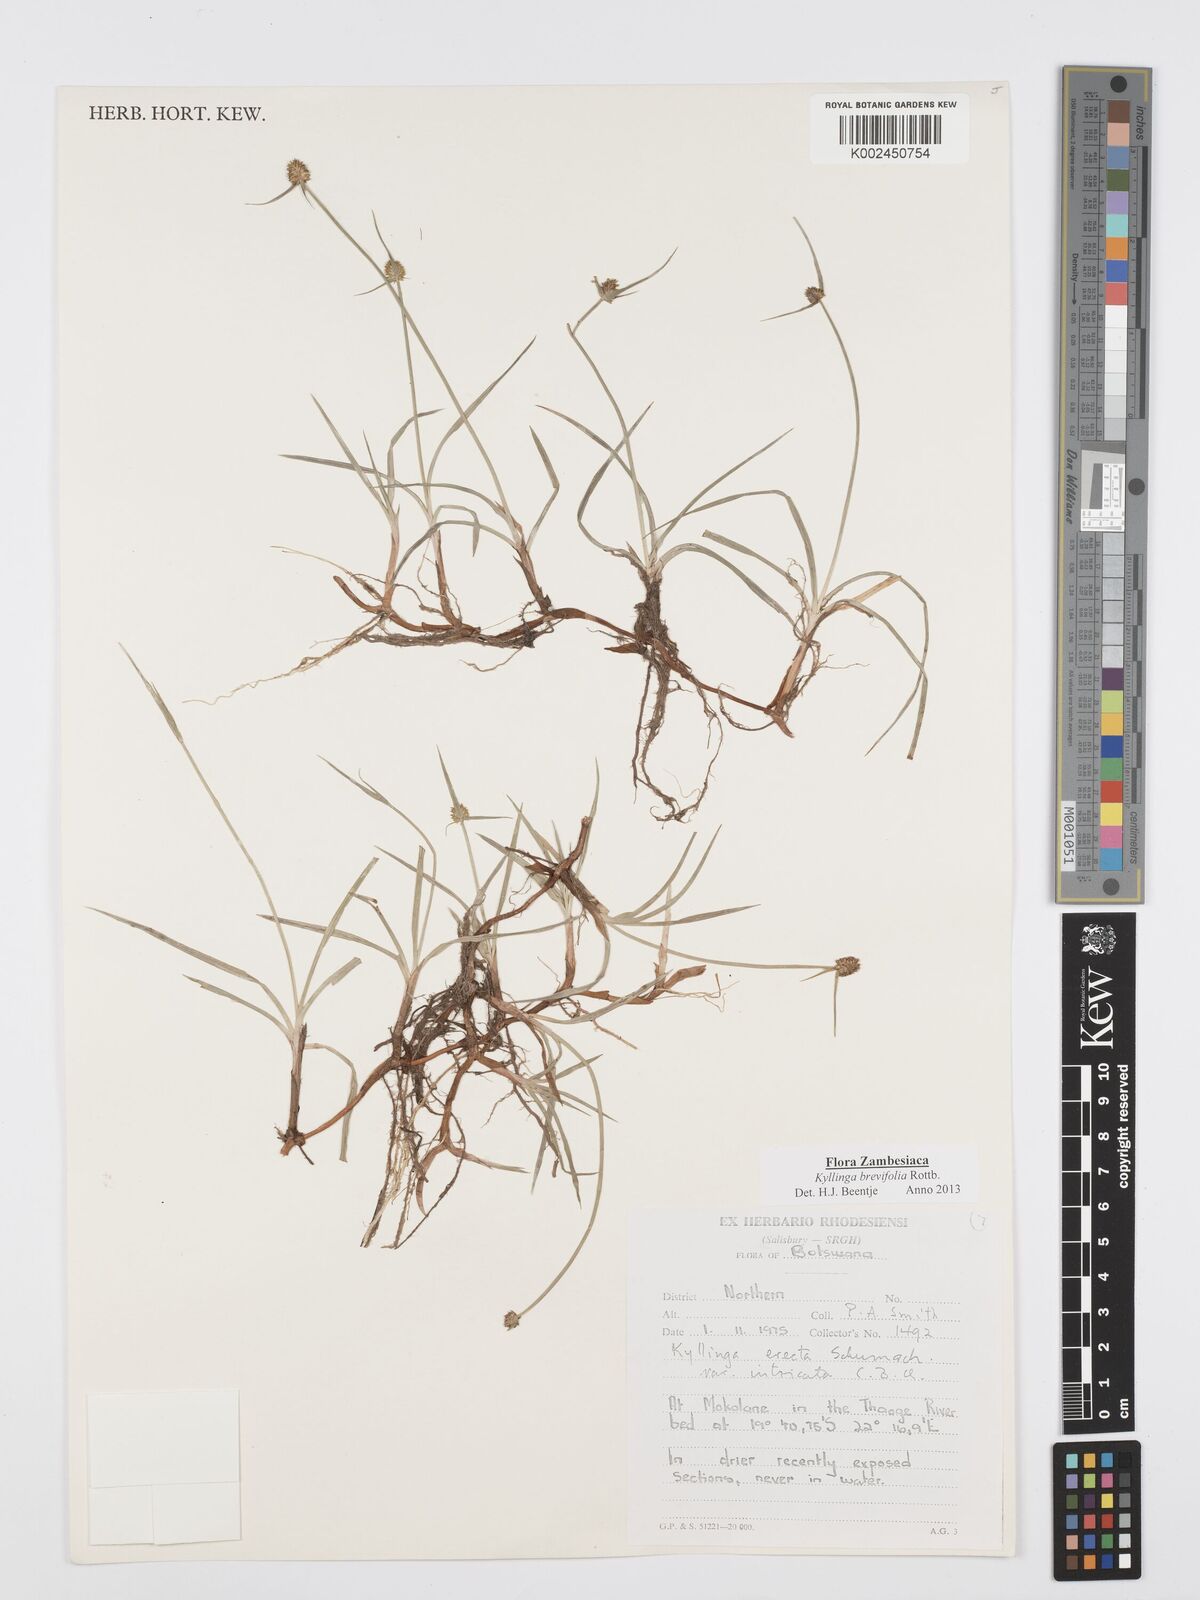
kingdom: Plantae
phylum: Tracheophyta
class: Liliopsida
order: Poales
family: Cyperaceae
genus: Cyperus
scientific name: Cyperus brevifolius
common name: Globe kyllinga
